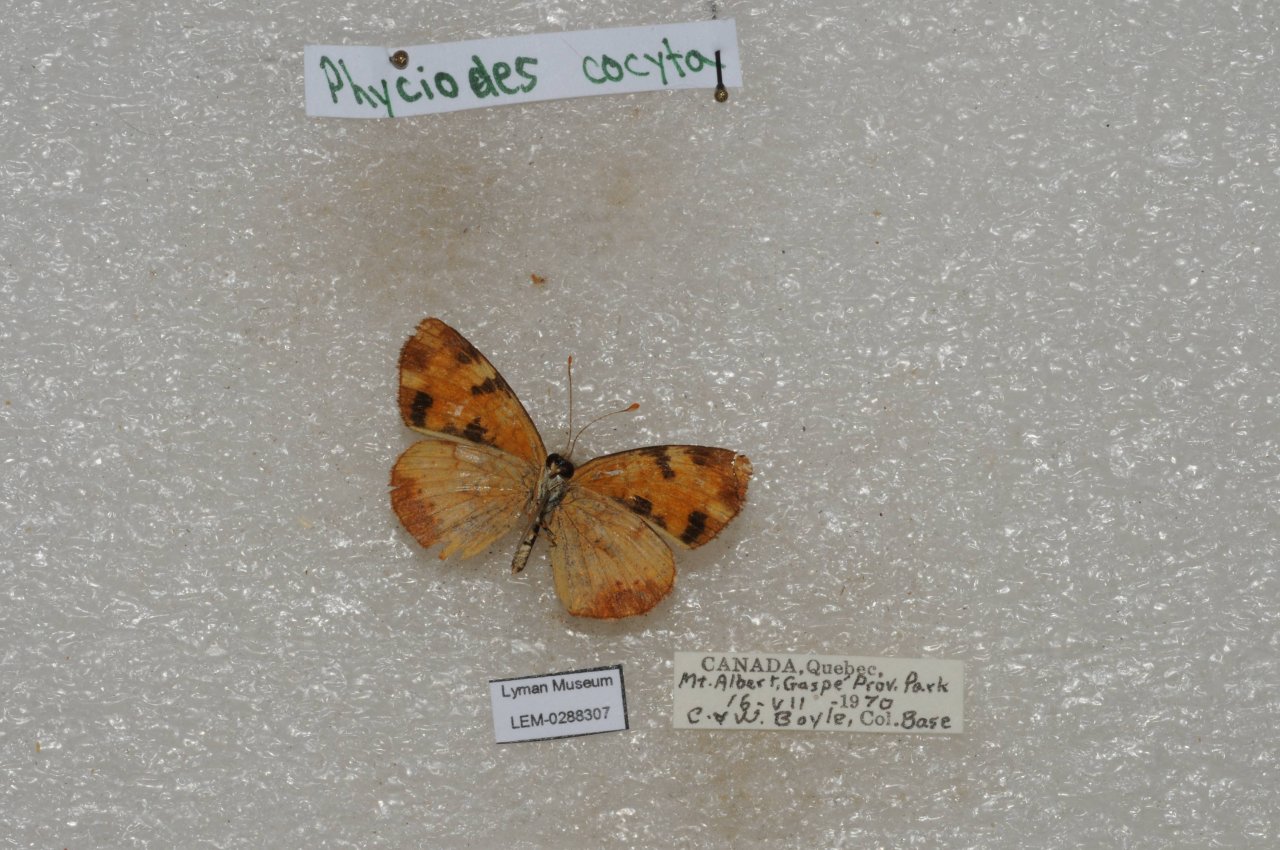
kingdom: Animalia
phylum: Arthropoda
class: Insecta
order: Lepidoptera
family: Nymphalidae
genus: Phyciodes
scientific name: Phyciodes tharos
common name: Northern Crescent
